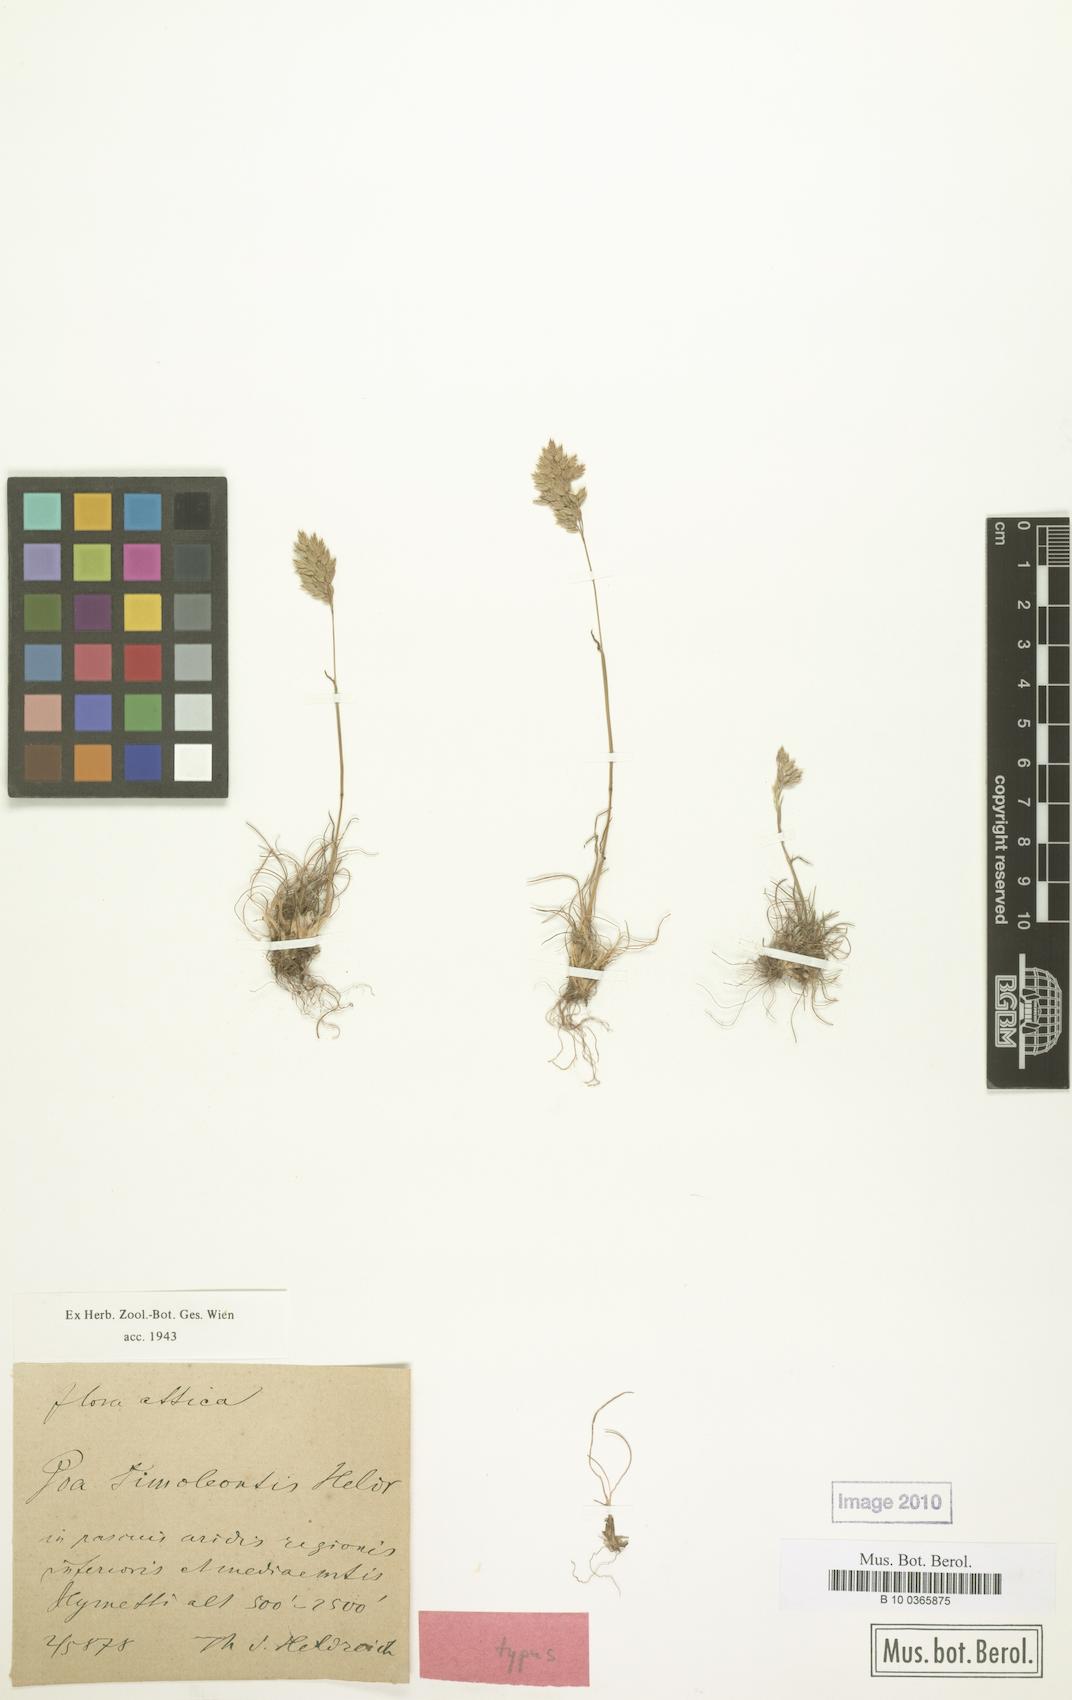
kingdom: Plantae
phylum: Tracheophyta
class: Liliopsida
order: Poales
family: Poaceae
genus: Poa
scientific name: Poa timoleontis
